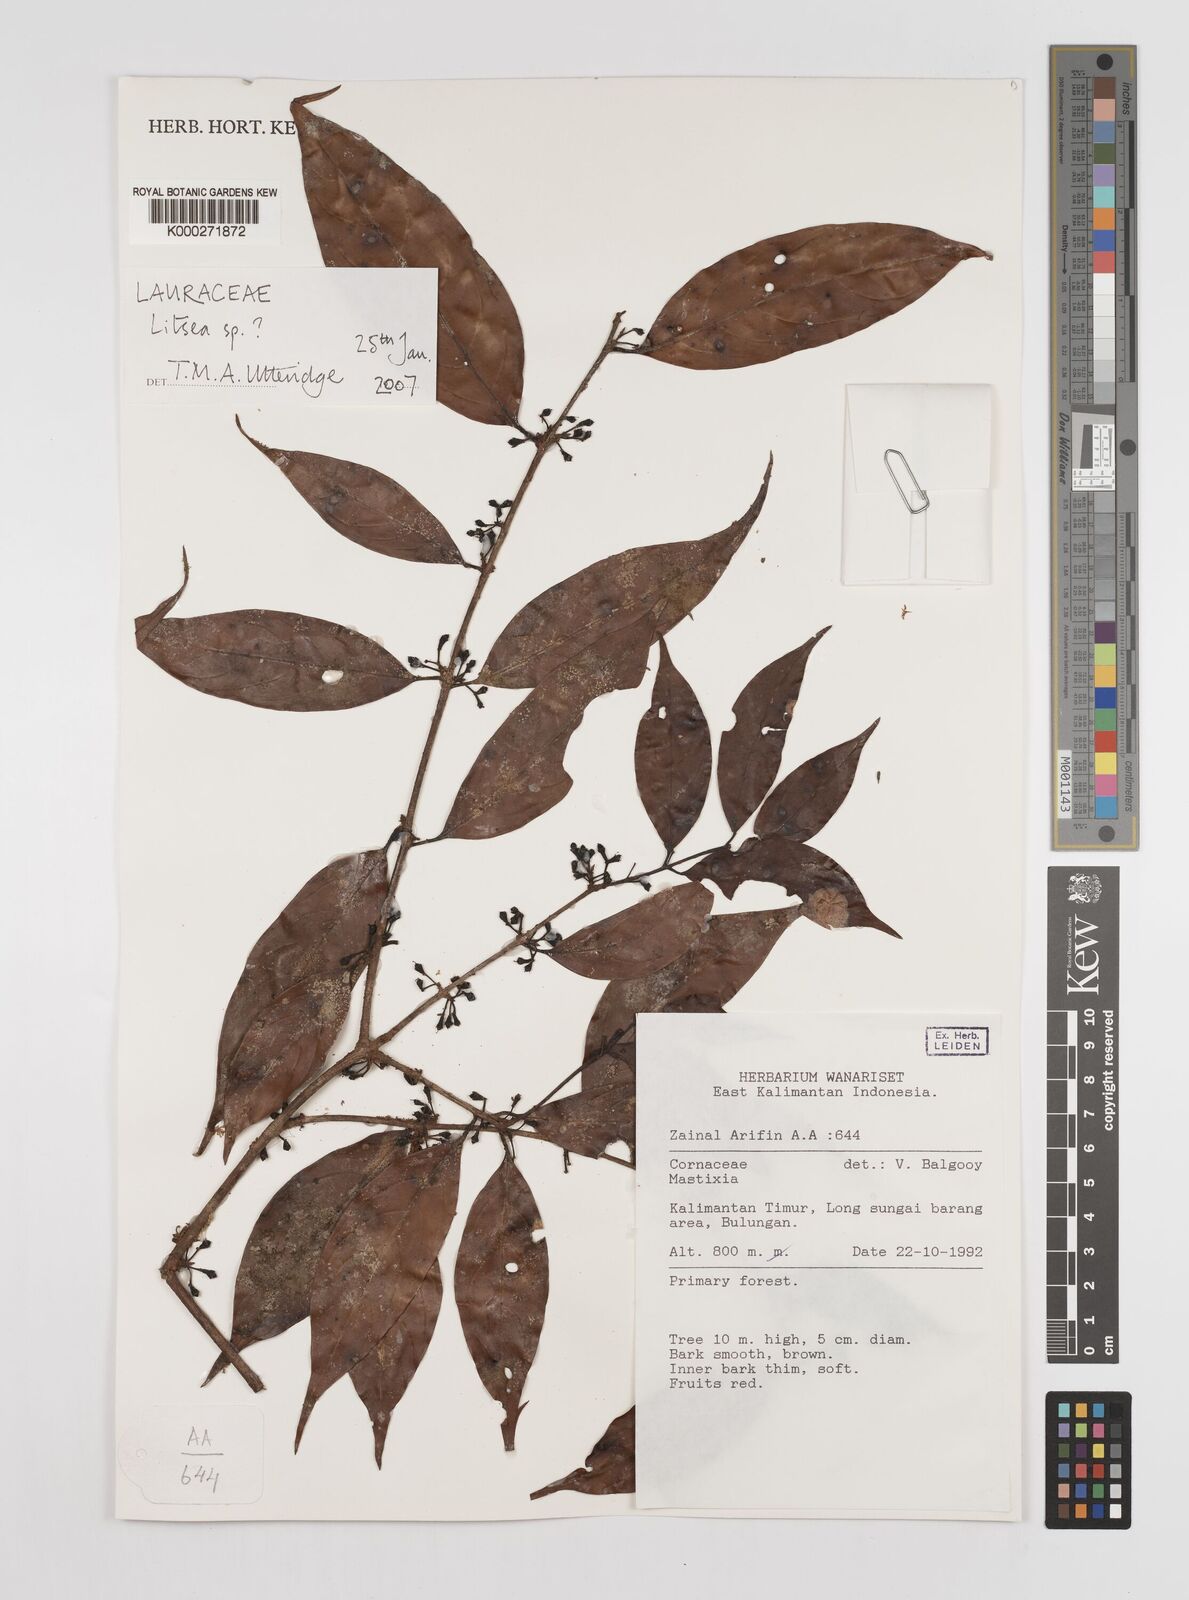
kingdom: Plantae
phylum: Tracheophyta
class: Magnoliopsida
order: Laurales
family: Lauraceae
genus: Litsea
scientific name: Litsea
